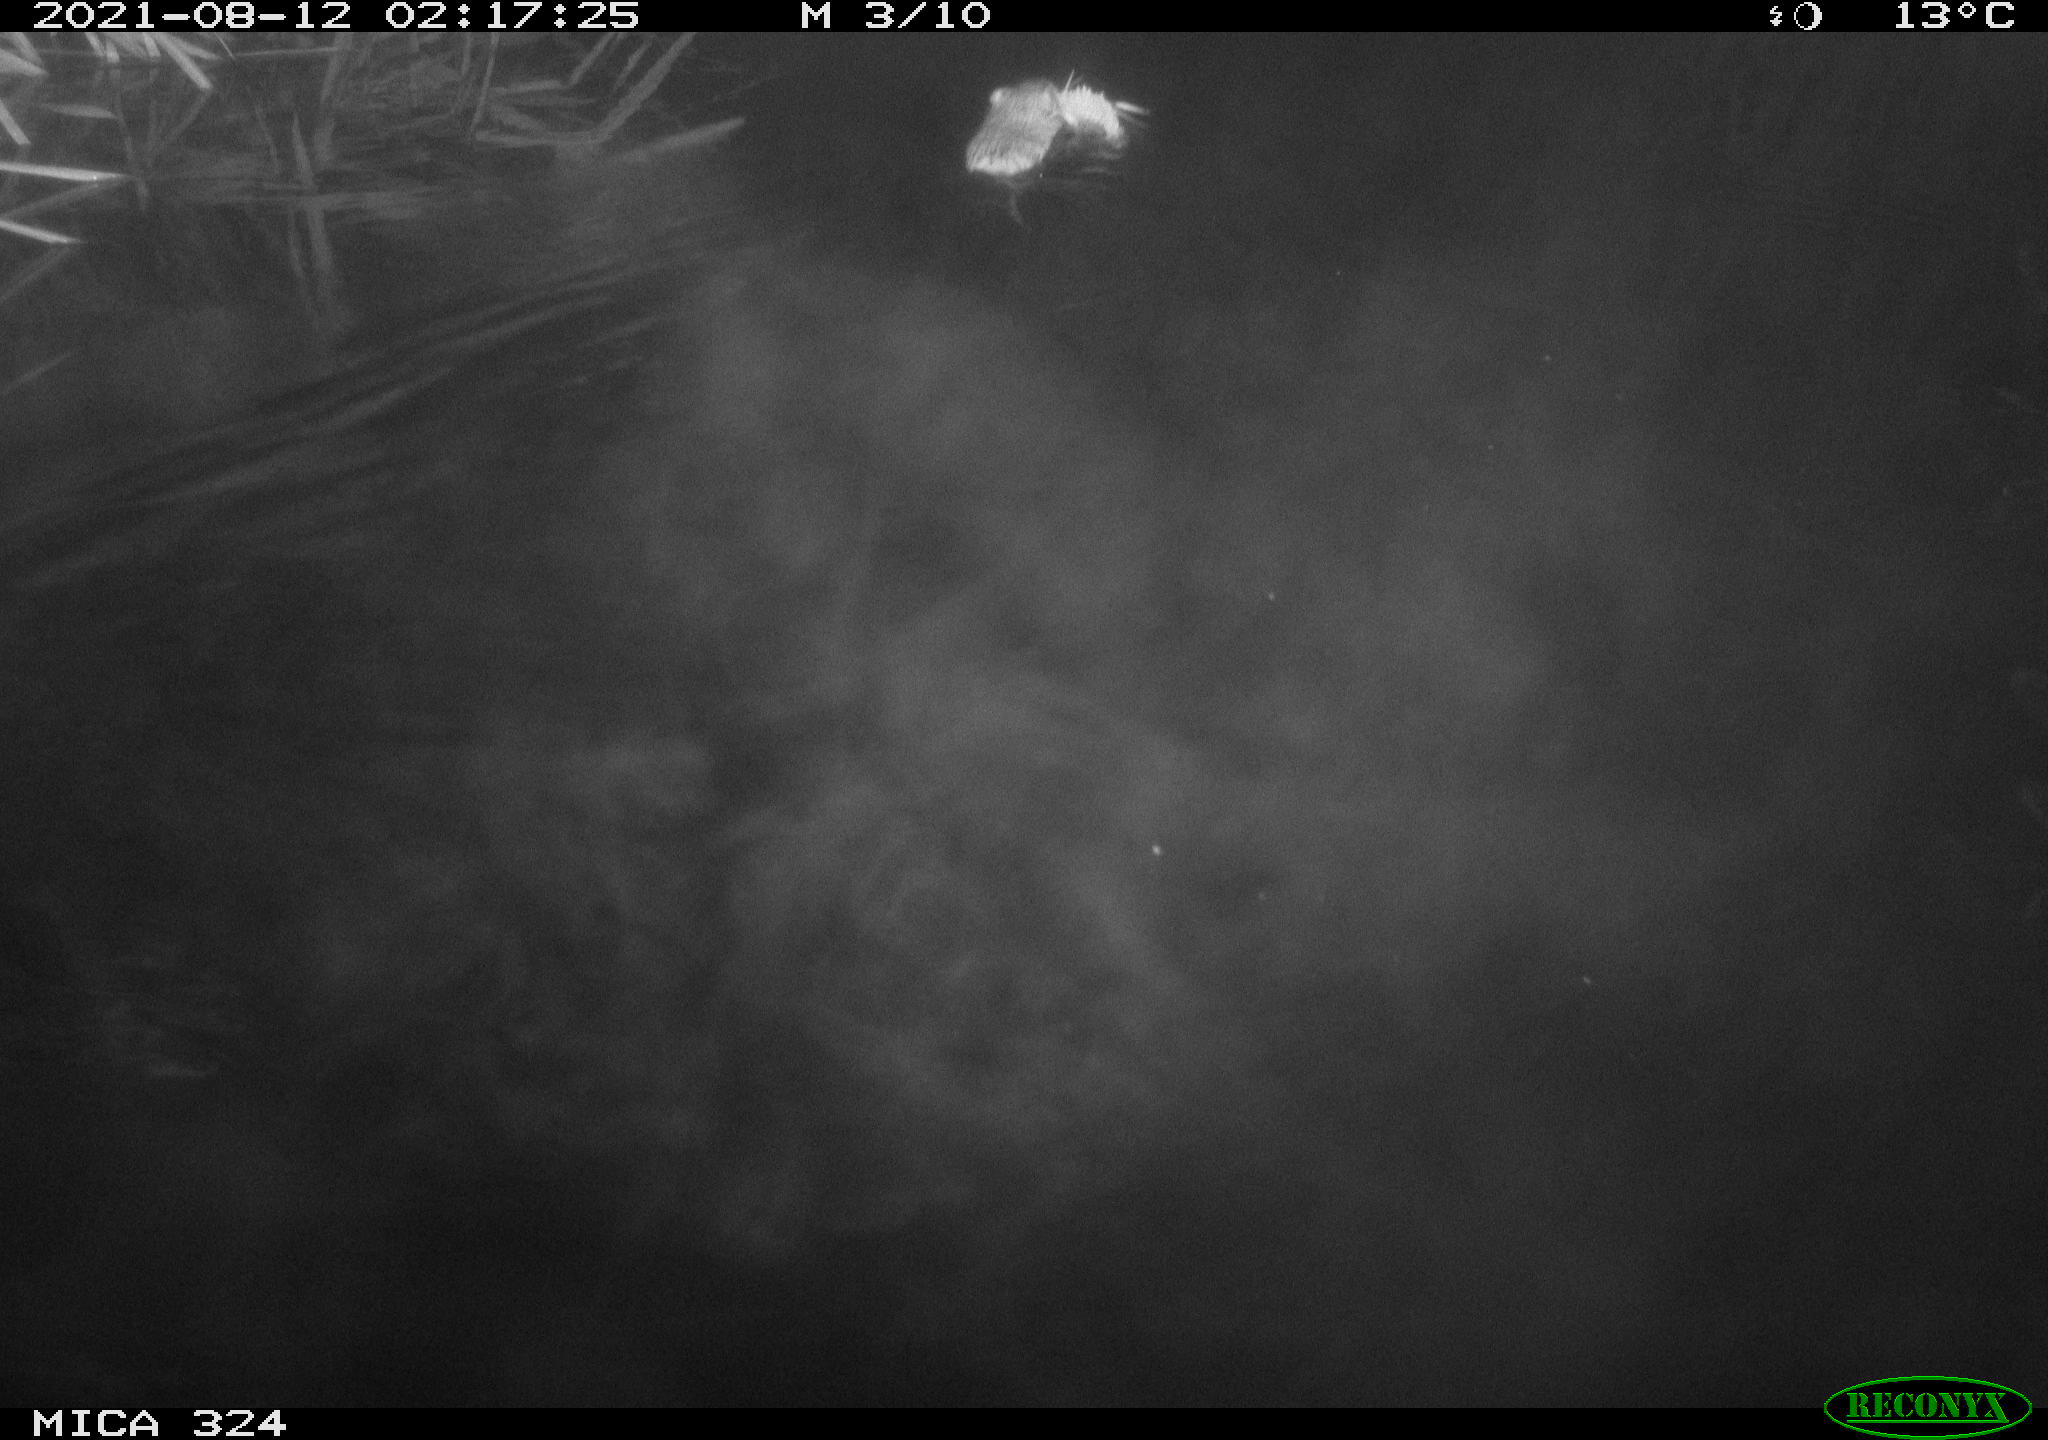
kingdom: Animalia
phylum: Chordata
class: Mammalia
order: Rodentia
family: Cricetidae
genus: Ondatra
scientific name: Ondatra zibethicus
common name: Muskrat
